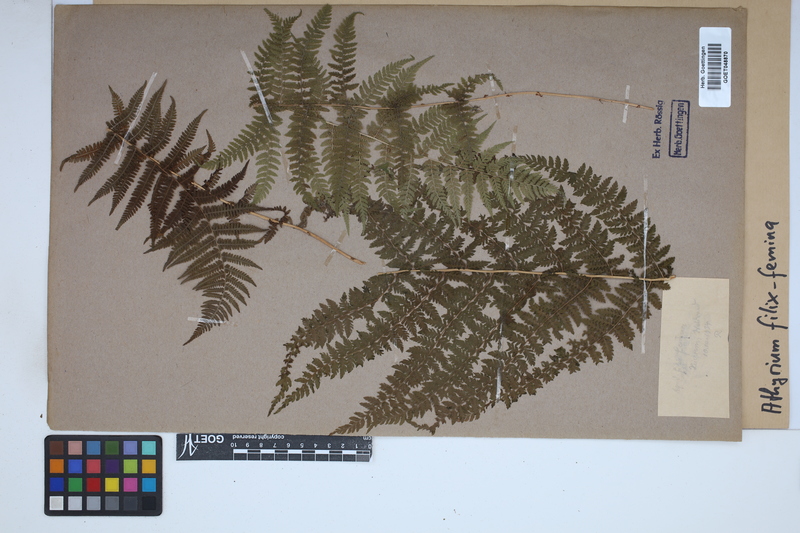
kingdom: Plantae
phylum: Tracheophyta
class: Polypodiopsida
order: Polypodiales
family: Athyriaceae
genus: Athyrium
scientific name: Athyrium filix-femina
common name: Lady fern
